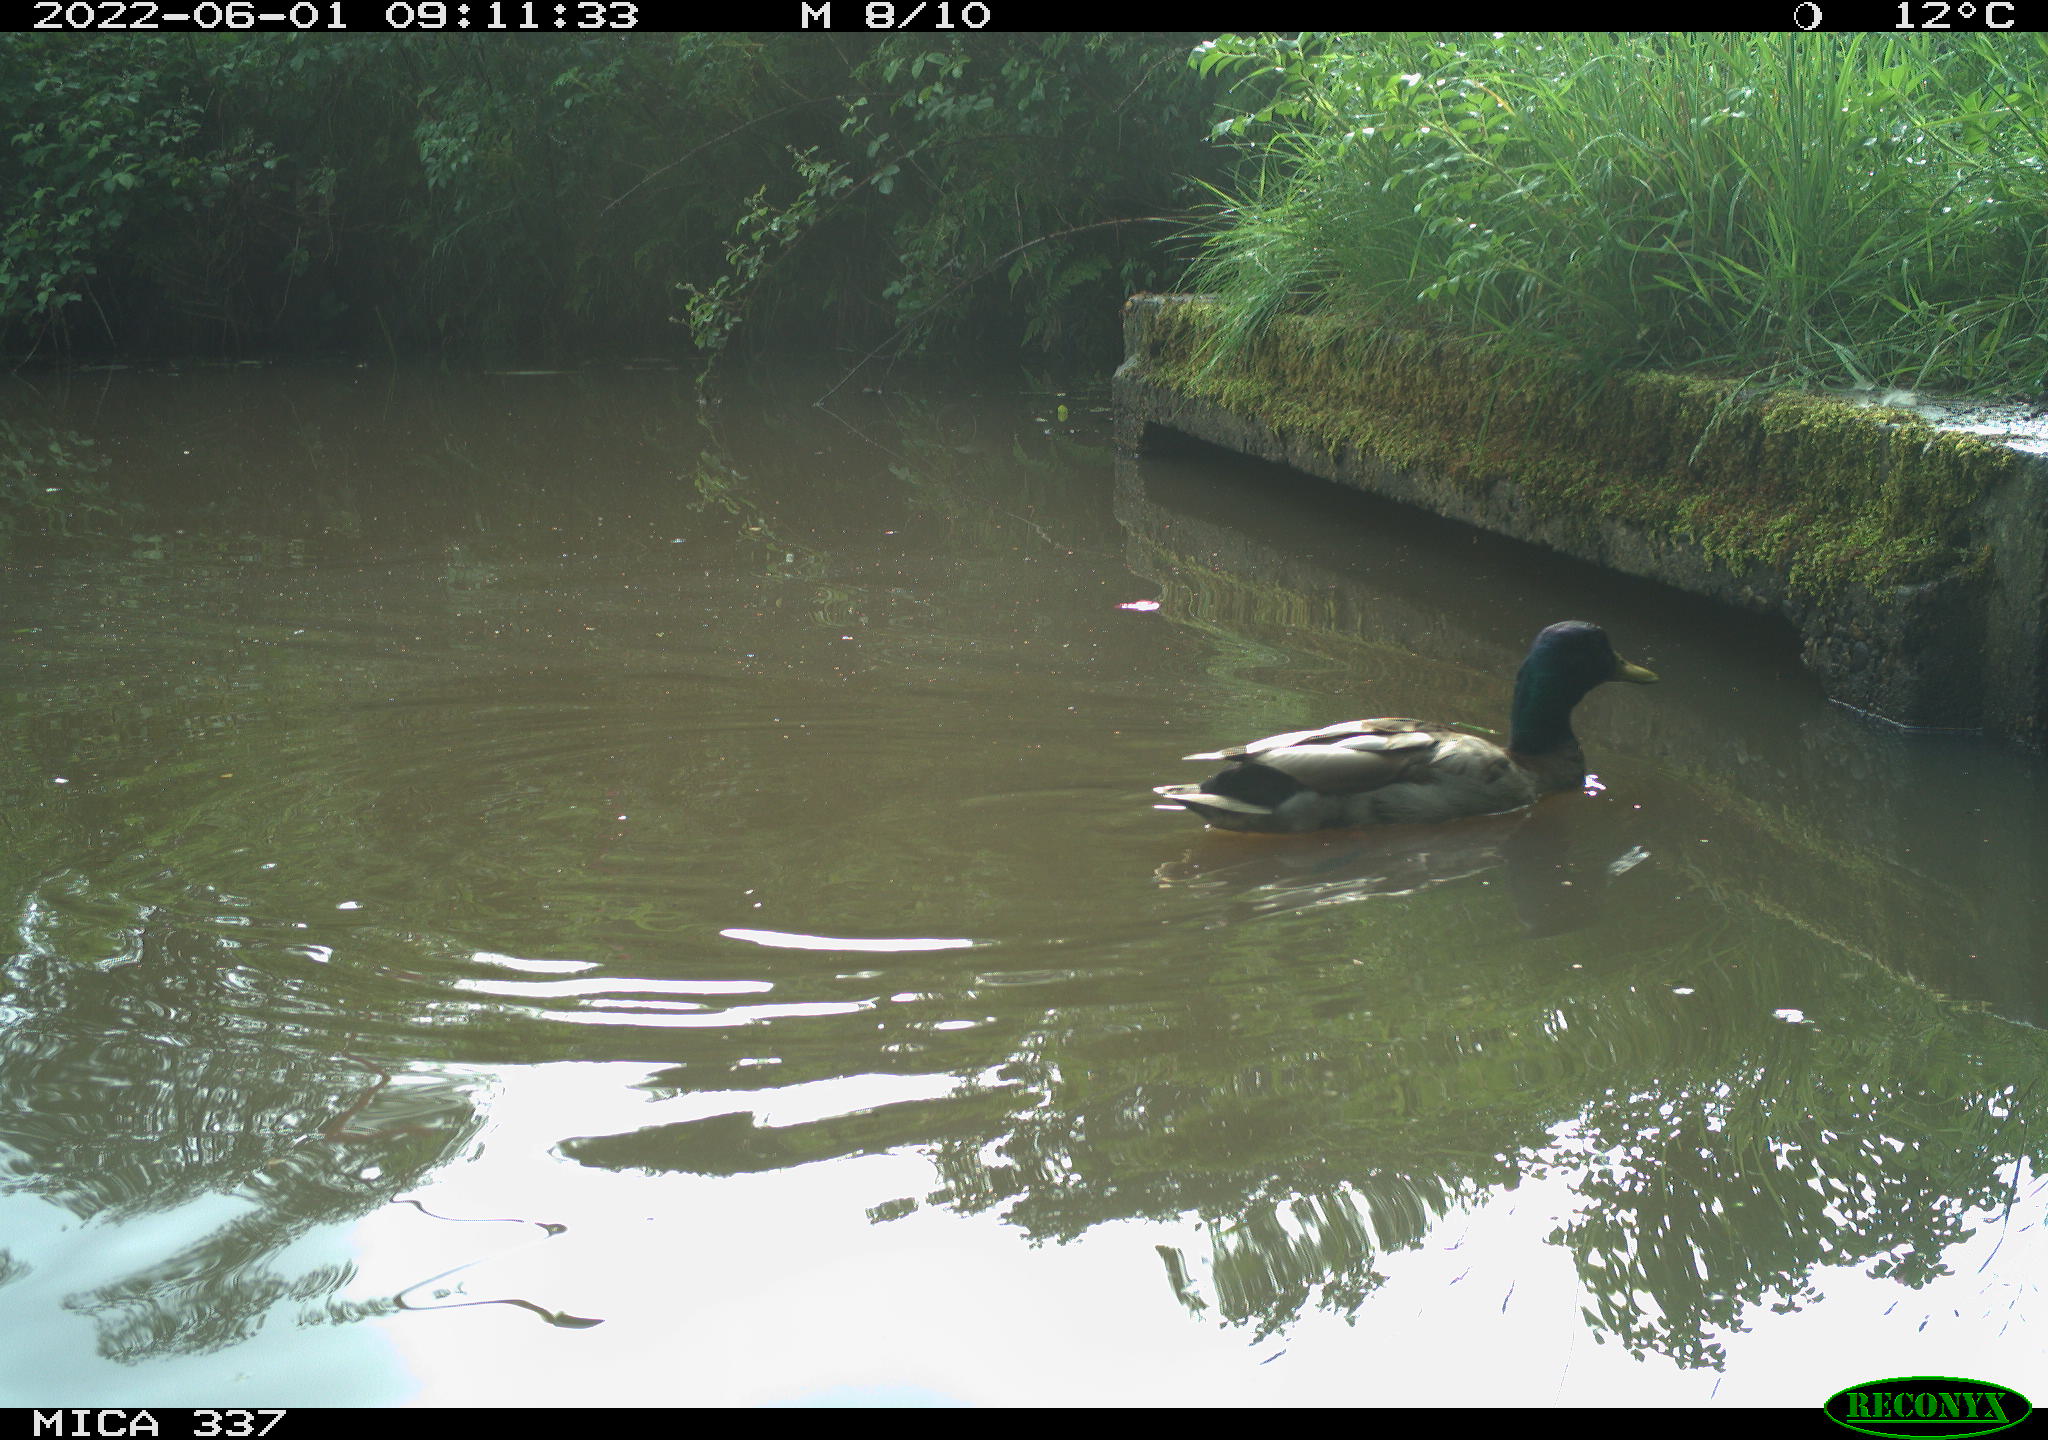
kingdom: Animalia
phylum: Chordata
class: Aves
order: Anseriformes
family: Anatidae
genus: Anas
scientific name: Anas platyrhynchos
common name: Mallard
